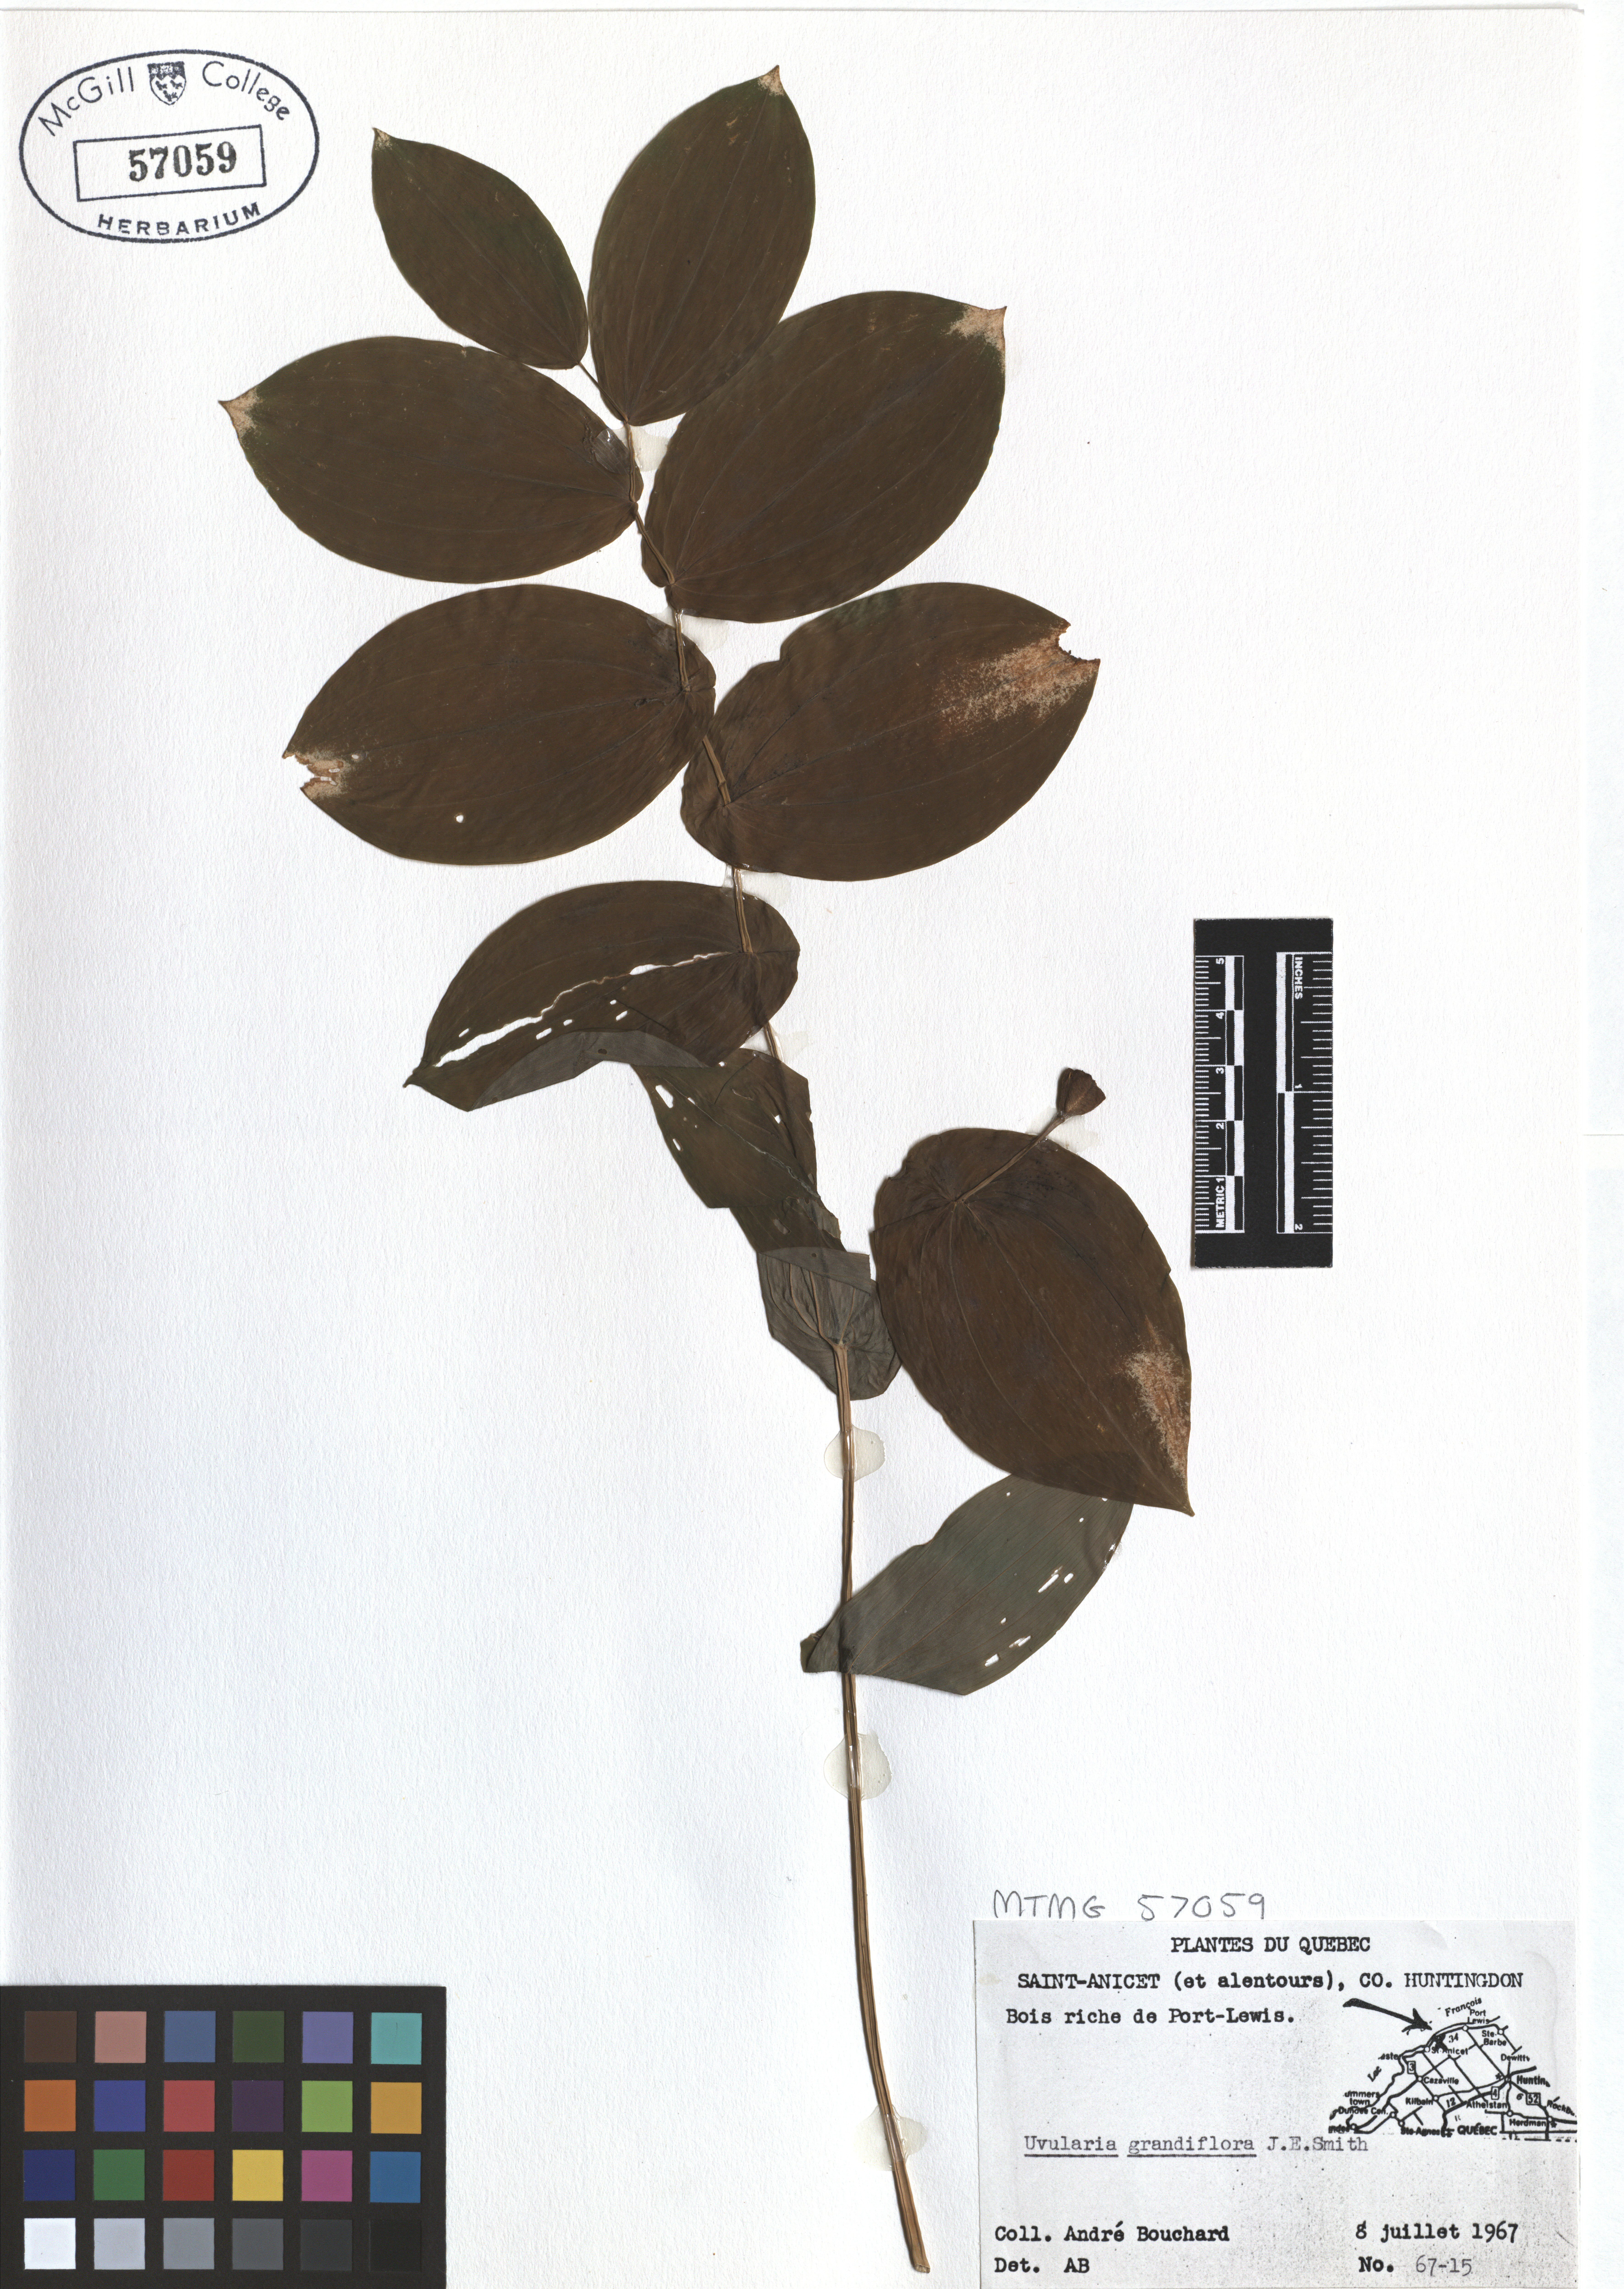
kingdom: Plantae
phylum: Tracheophyta
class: Liliopsida
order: Liliales
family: Colchicaceae
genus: Uvularia
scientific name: Uvularia grandiflora
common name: Bellwort
